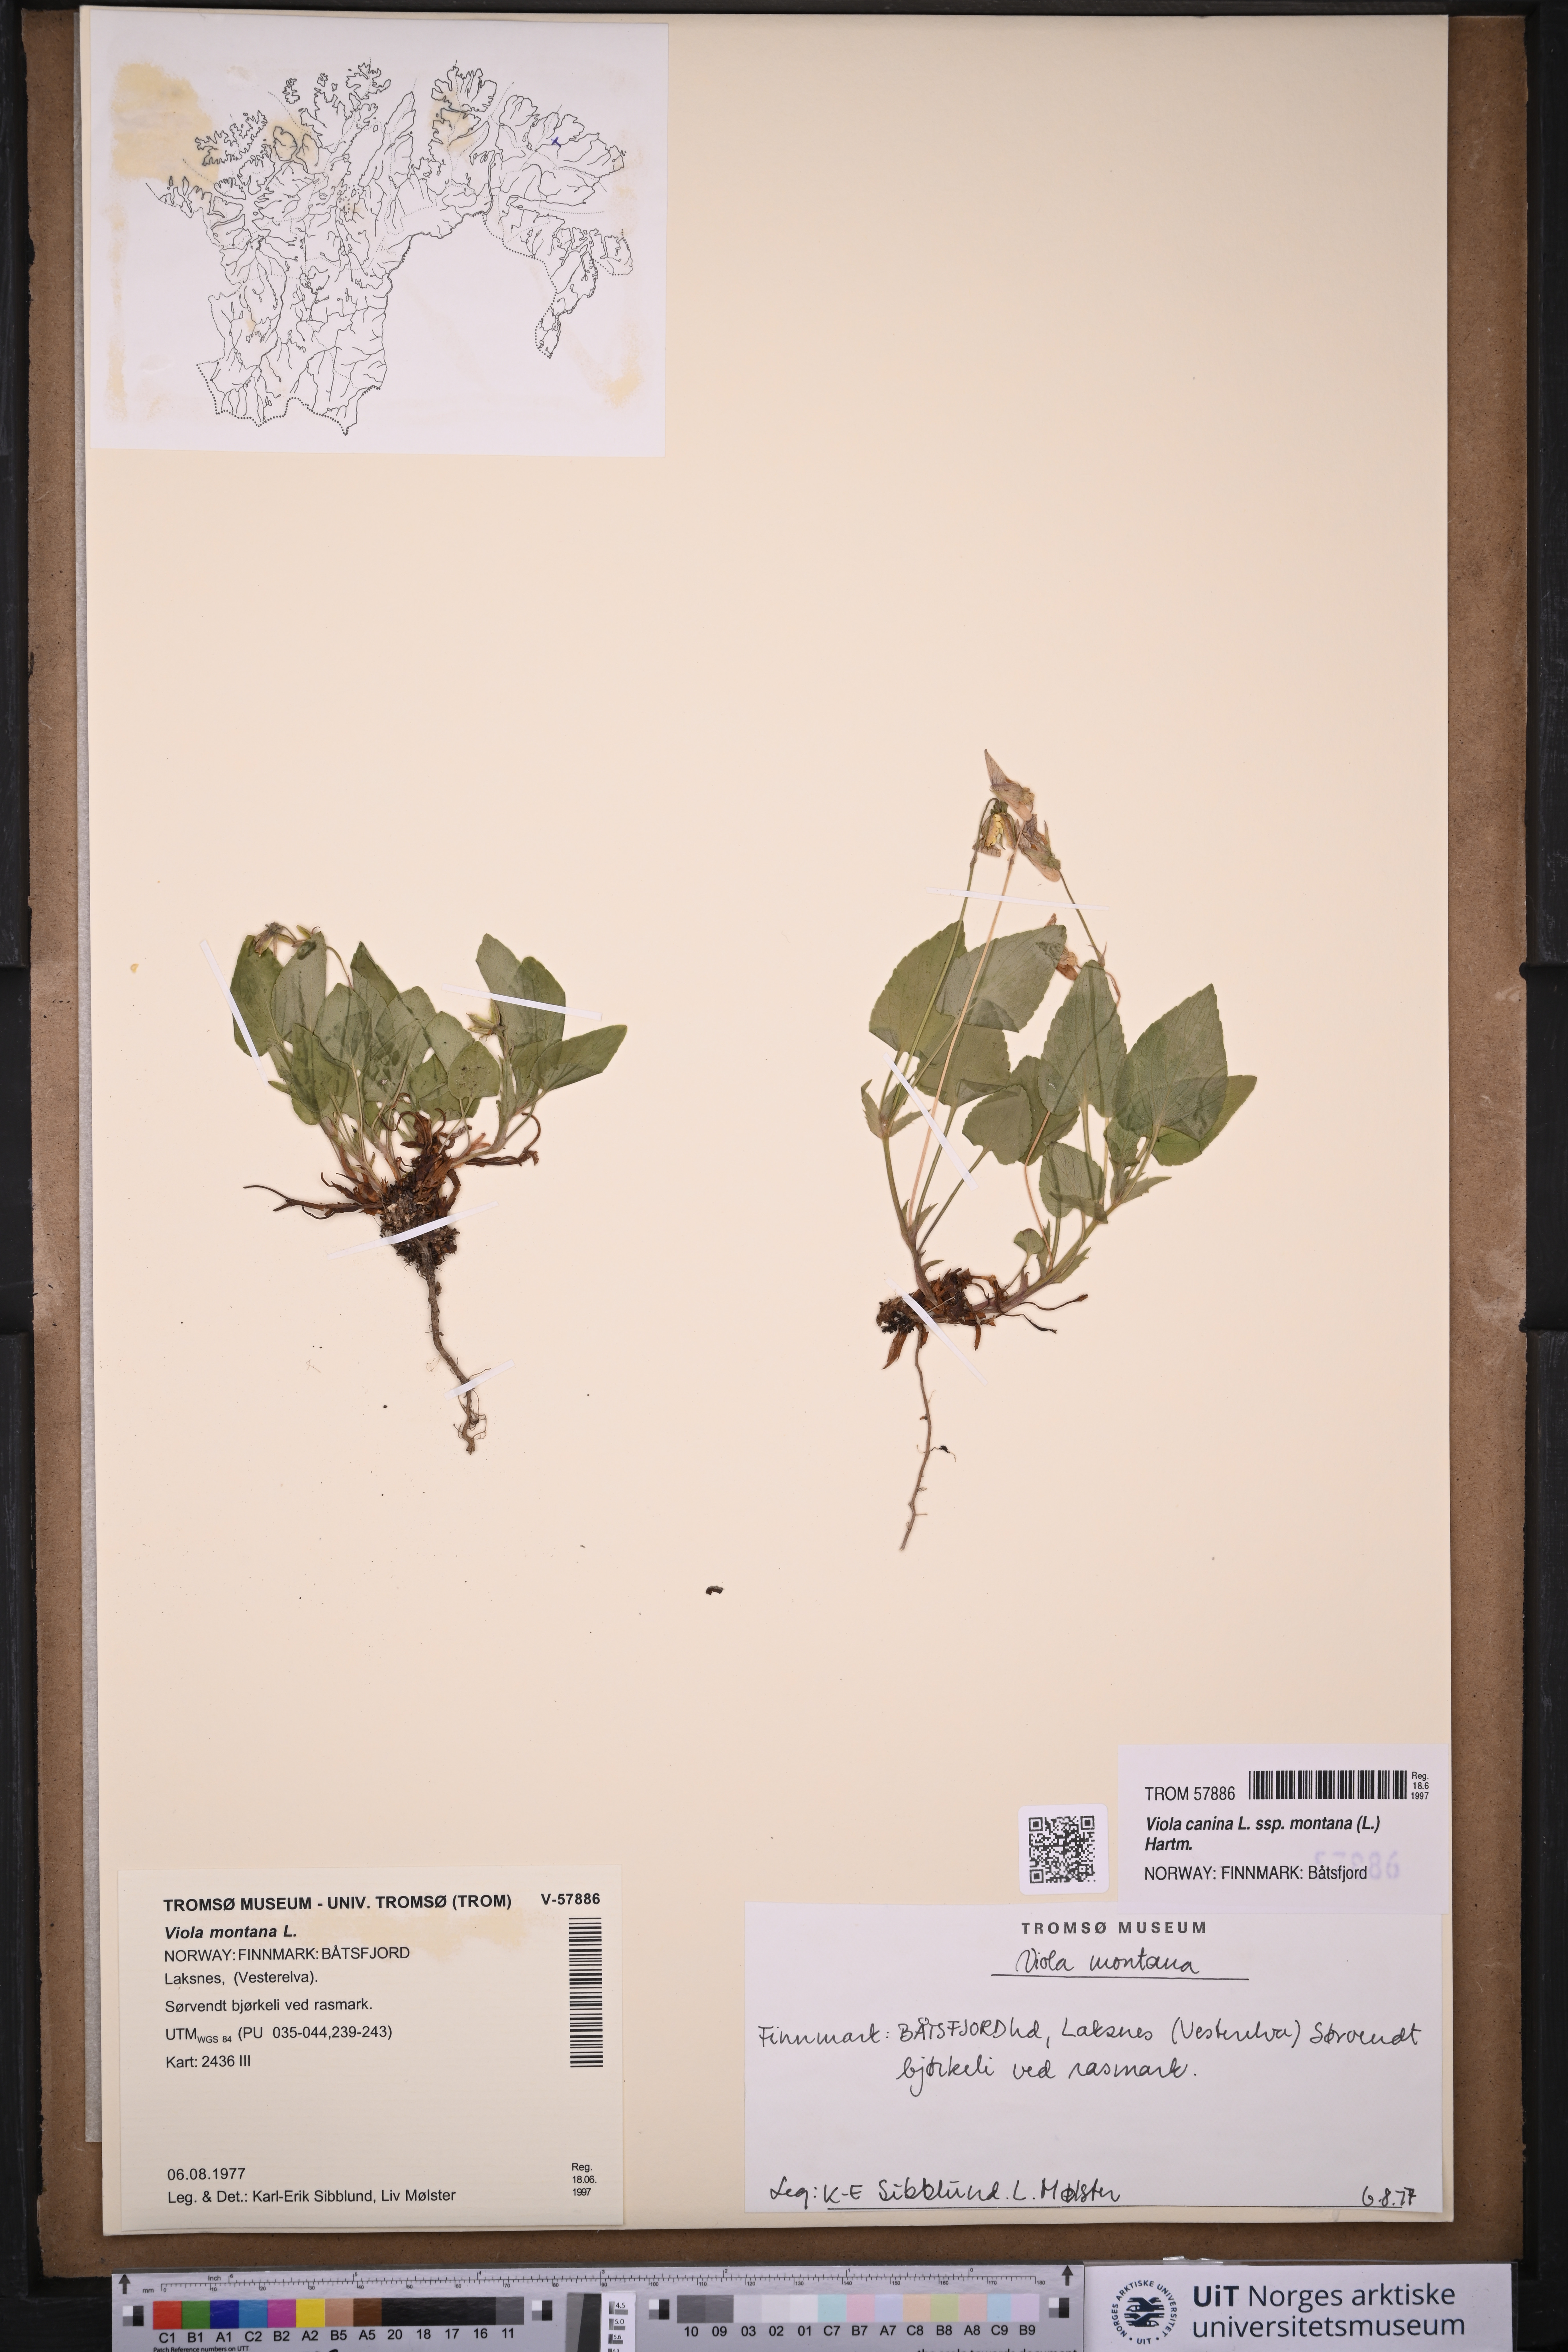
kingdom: Plantae
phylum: Tracheophyta
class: Magnoliopsida
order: Malpighiales
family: Violaceae
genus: Viola
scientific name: Viola ruppii
